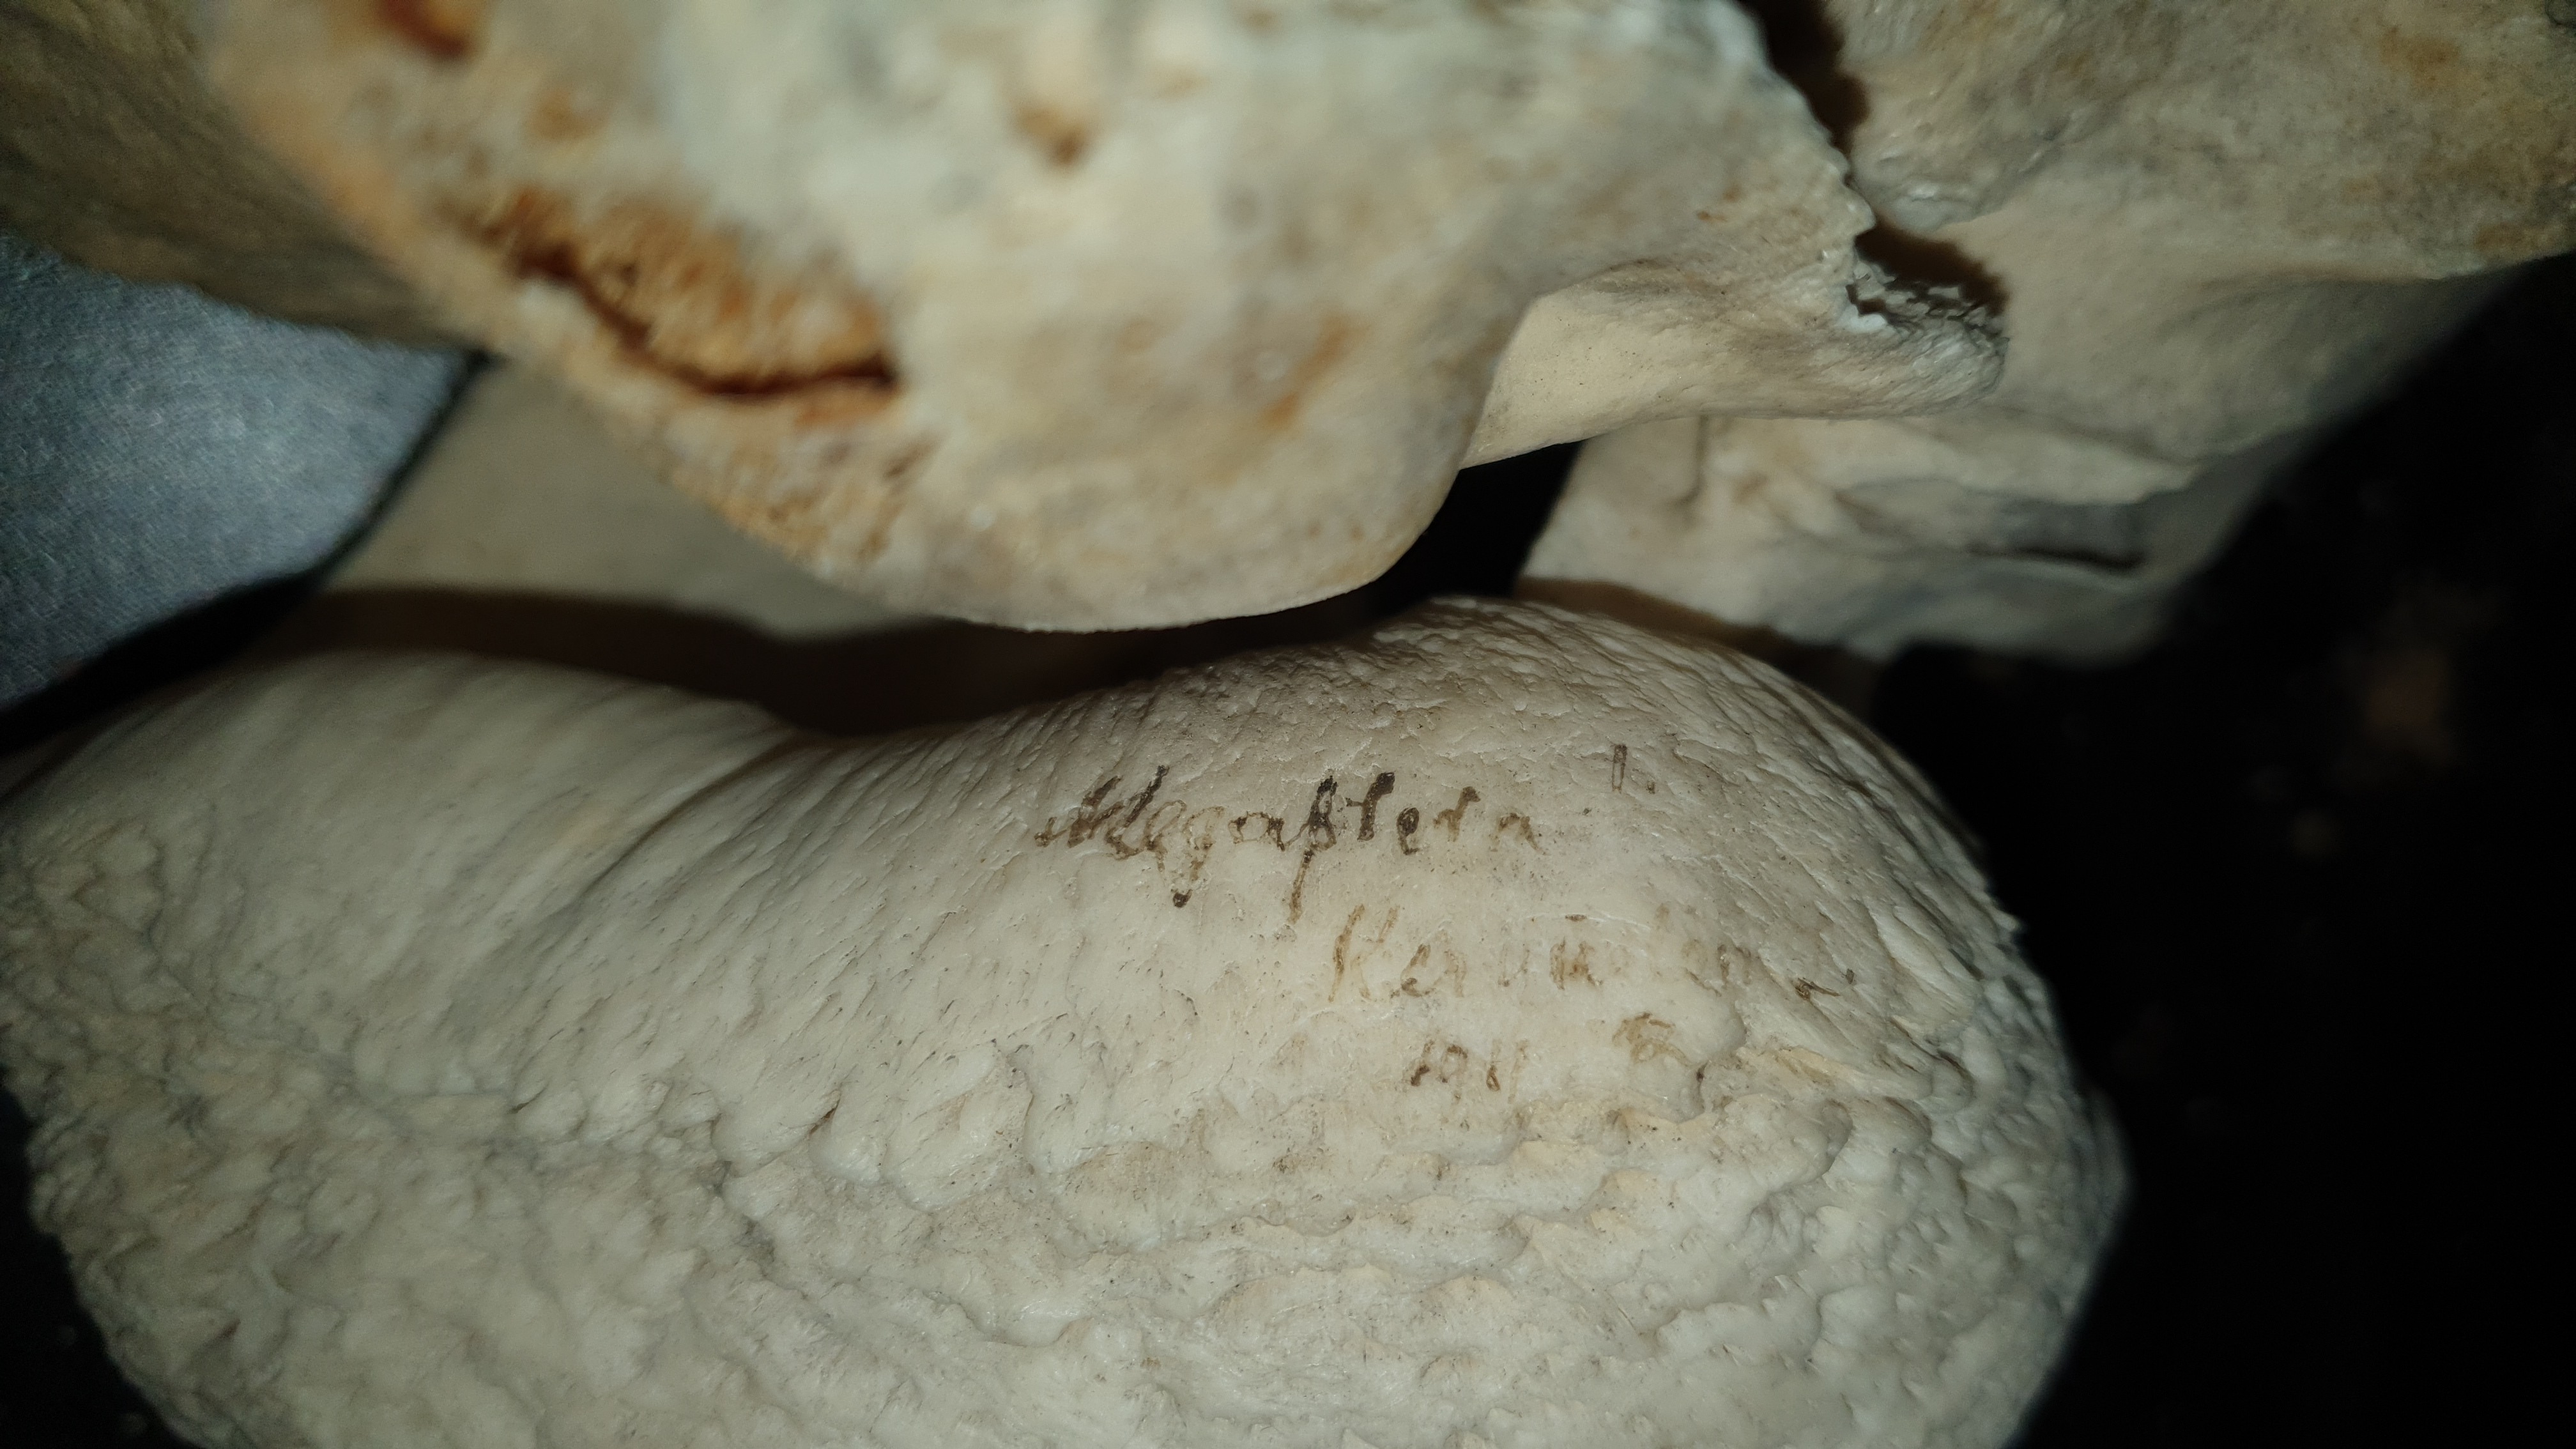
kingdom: Animalia
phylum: Chordata
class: Mammalia
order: Cetacea
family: Balaenopteridae
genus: Megaptera
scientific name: Megaptera novaeangliae
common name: Humpback whale
